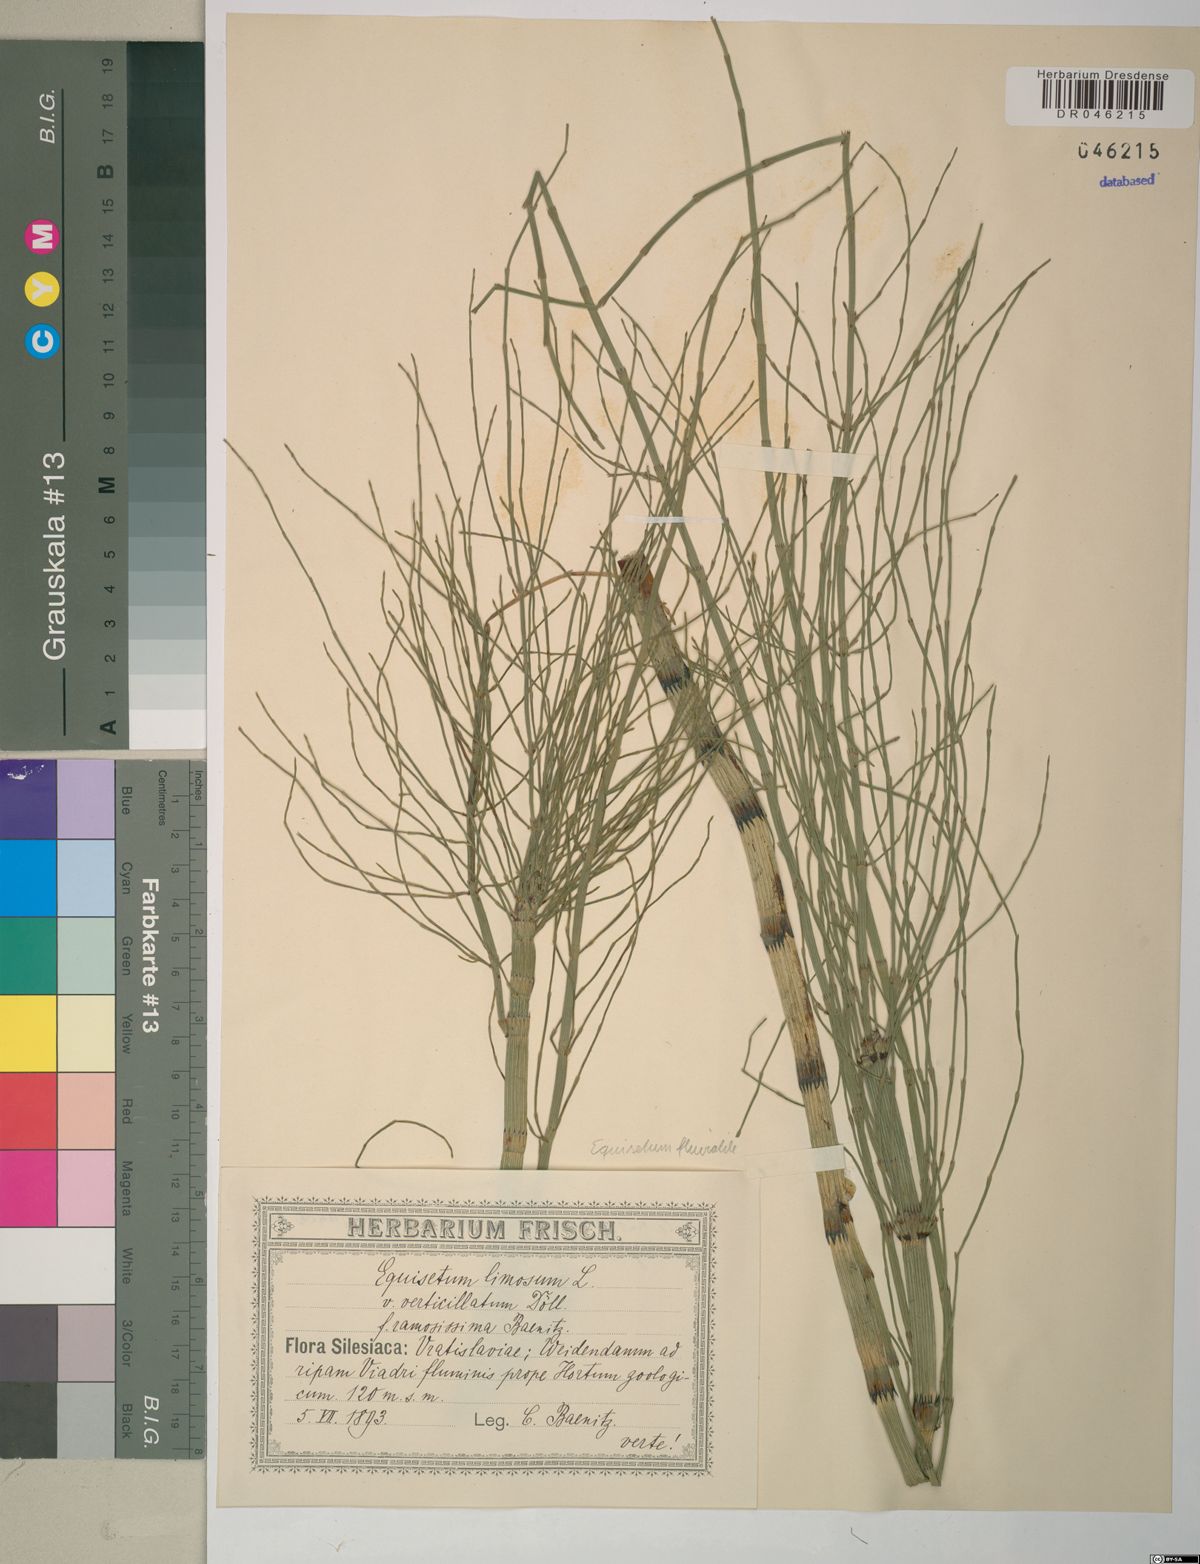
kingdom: Plantae
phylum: Tracheophyta
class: Polypodiopsida
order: Equisetales
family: Equisetaceae
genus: Equisetum
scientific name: Equisetum fluviatile
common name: Water horsetail
